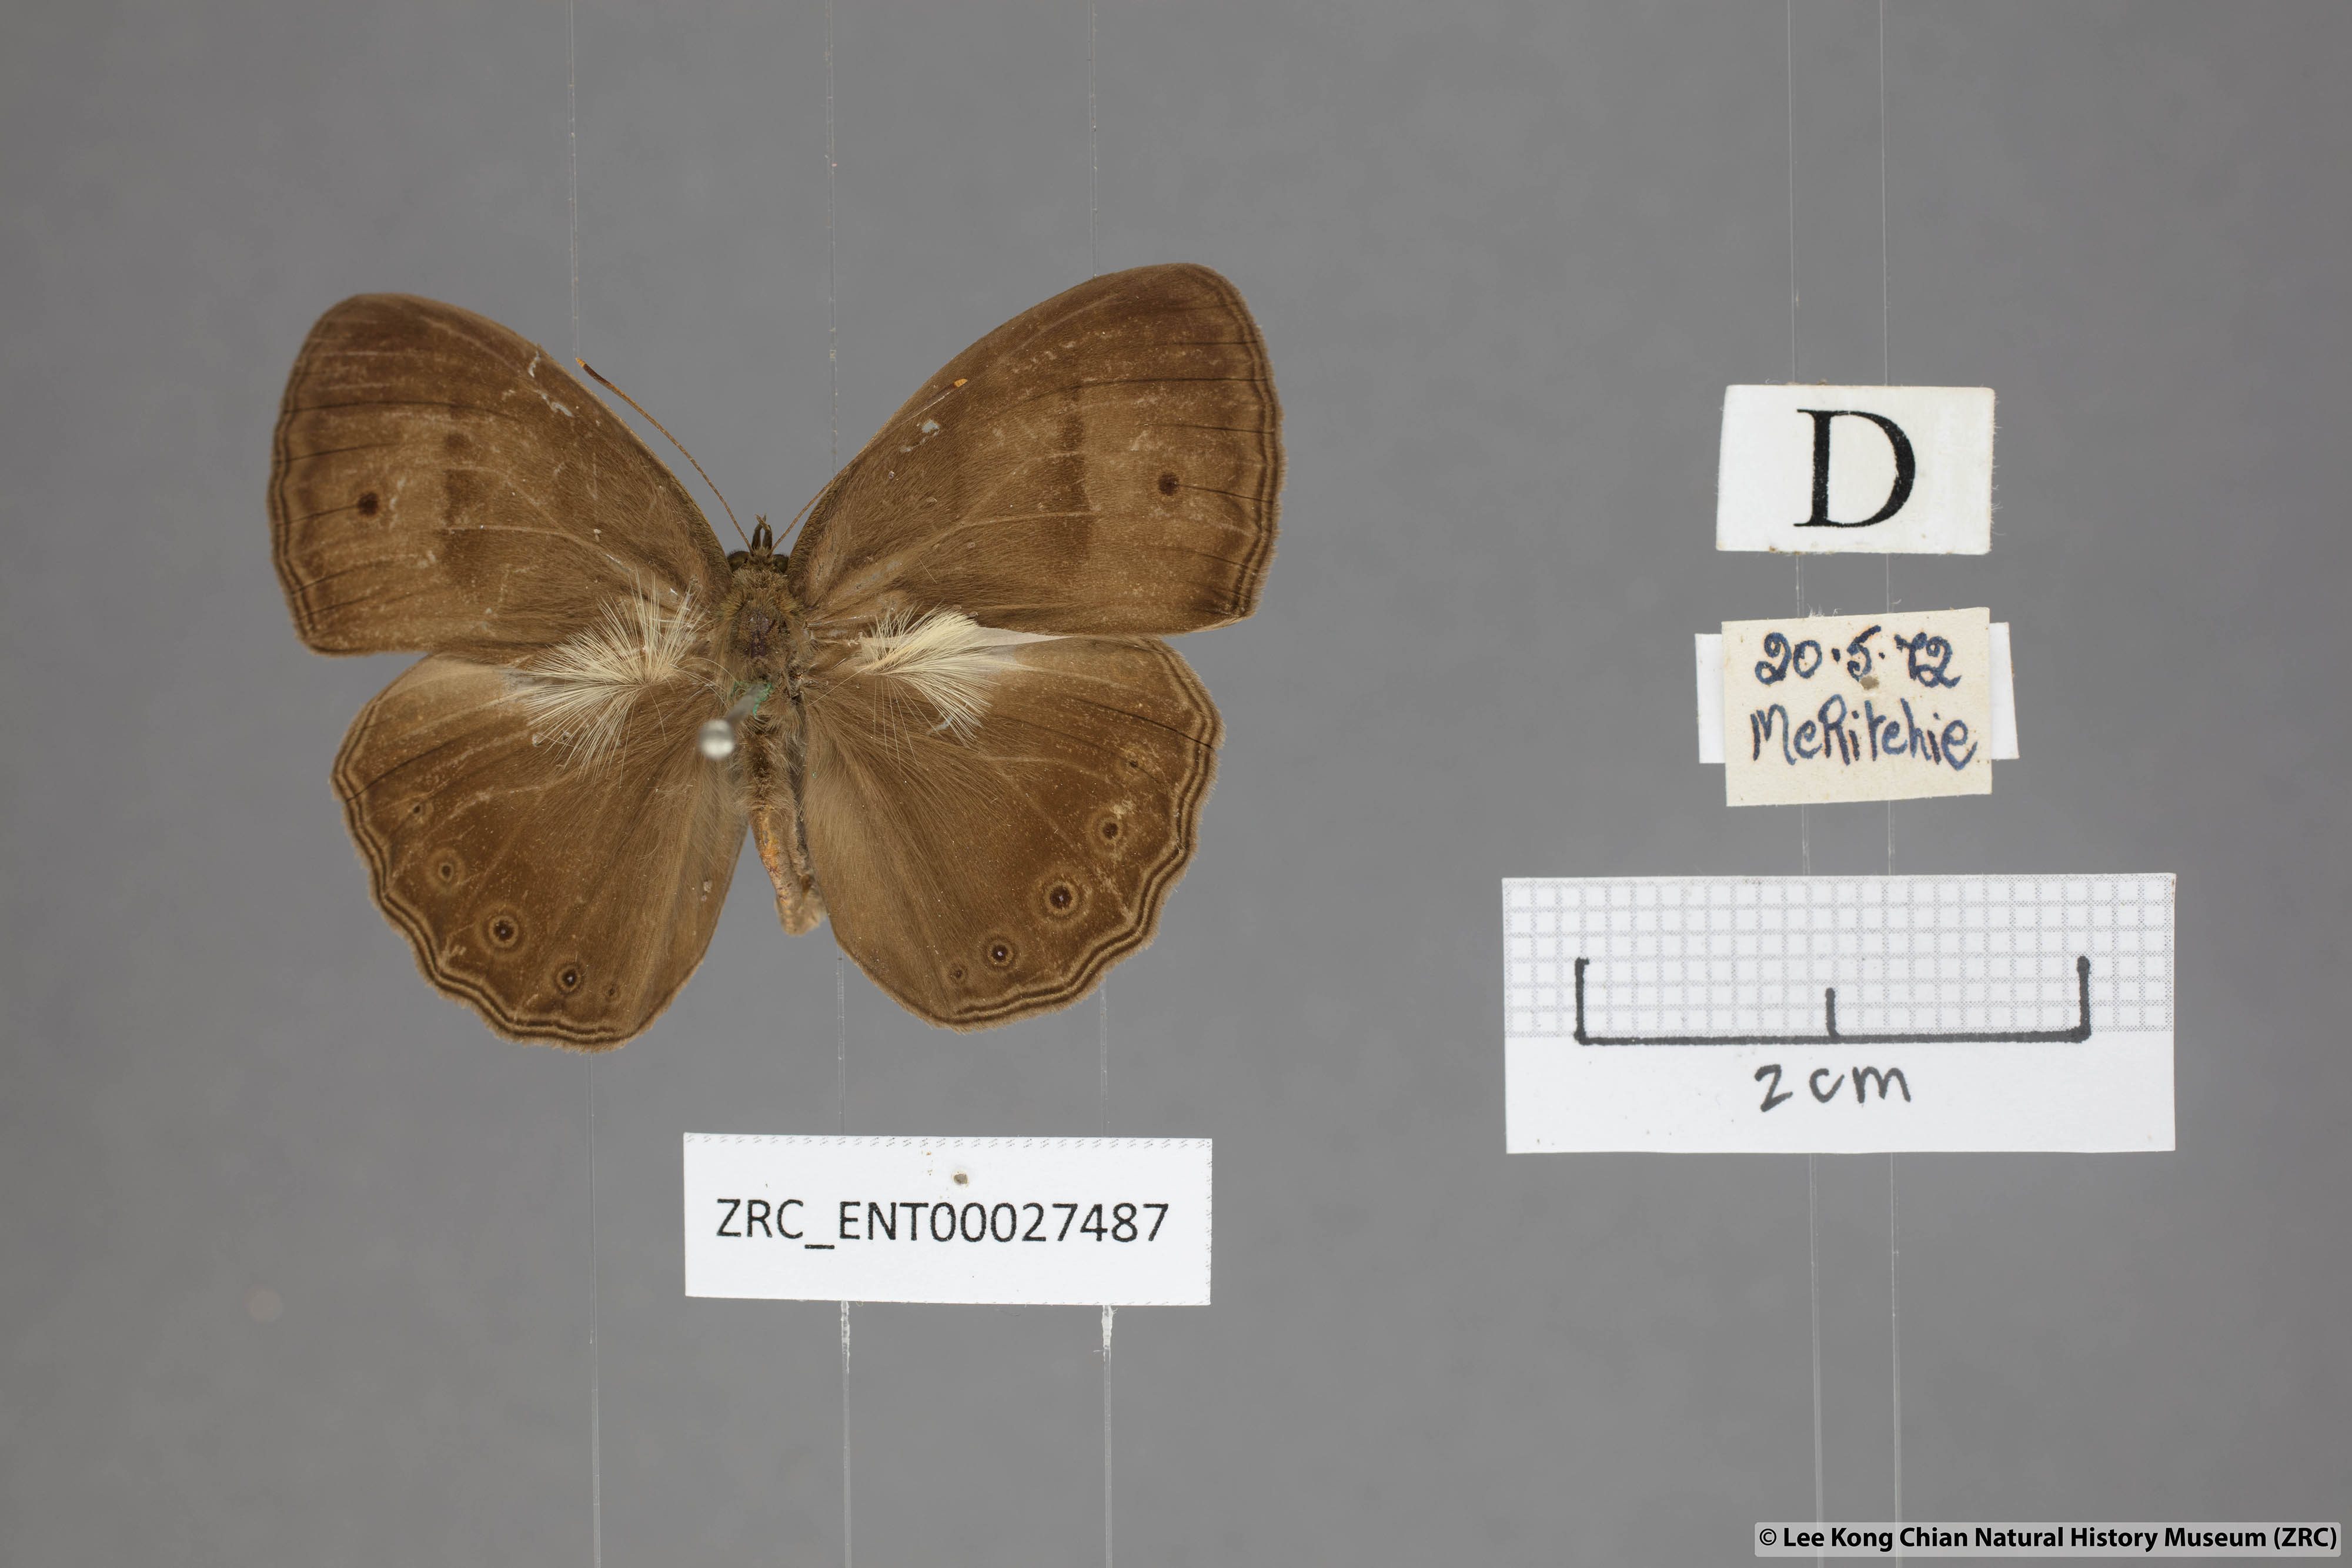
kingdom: Animalia
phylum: Arthropoda
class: Insecta
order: Lepidoptera
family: Nymphalidae
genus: Mycalesis
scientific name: Mycalesis fuscum
